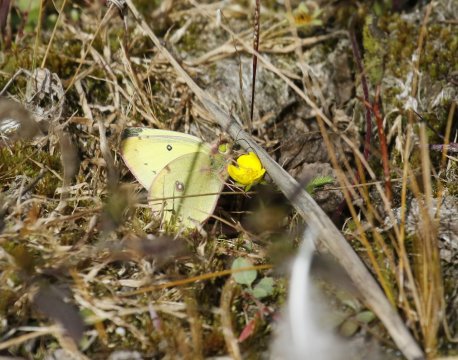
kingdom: Animalia
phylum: Arthropoda
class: Insecta
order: Lepidoptera
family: Pieridae
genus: Colias
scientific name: Colias philodice
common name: Clouded Sulphur
